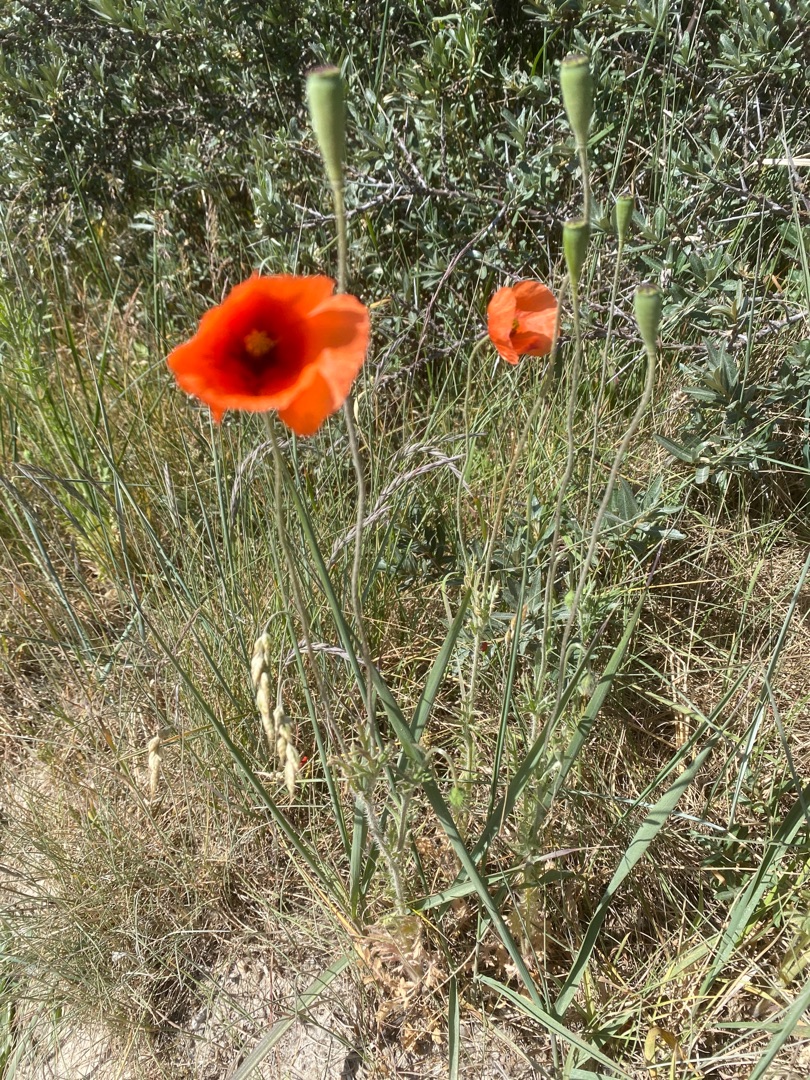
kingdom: Plantae
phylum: Tracheophyta
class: Magnoliopsida
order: Ranunculales
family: Papaveraceae
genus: Papaver
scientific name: Papaver rhoeas
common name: Korn-valmue
